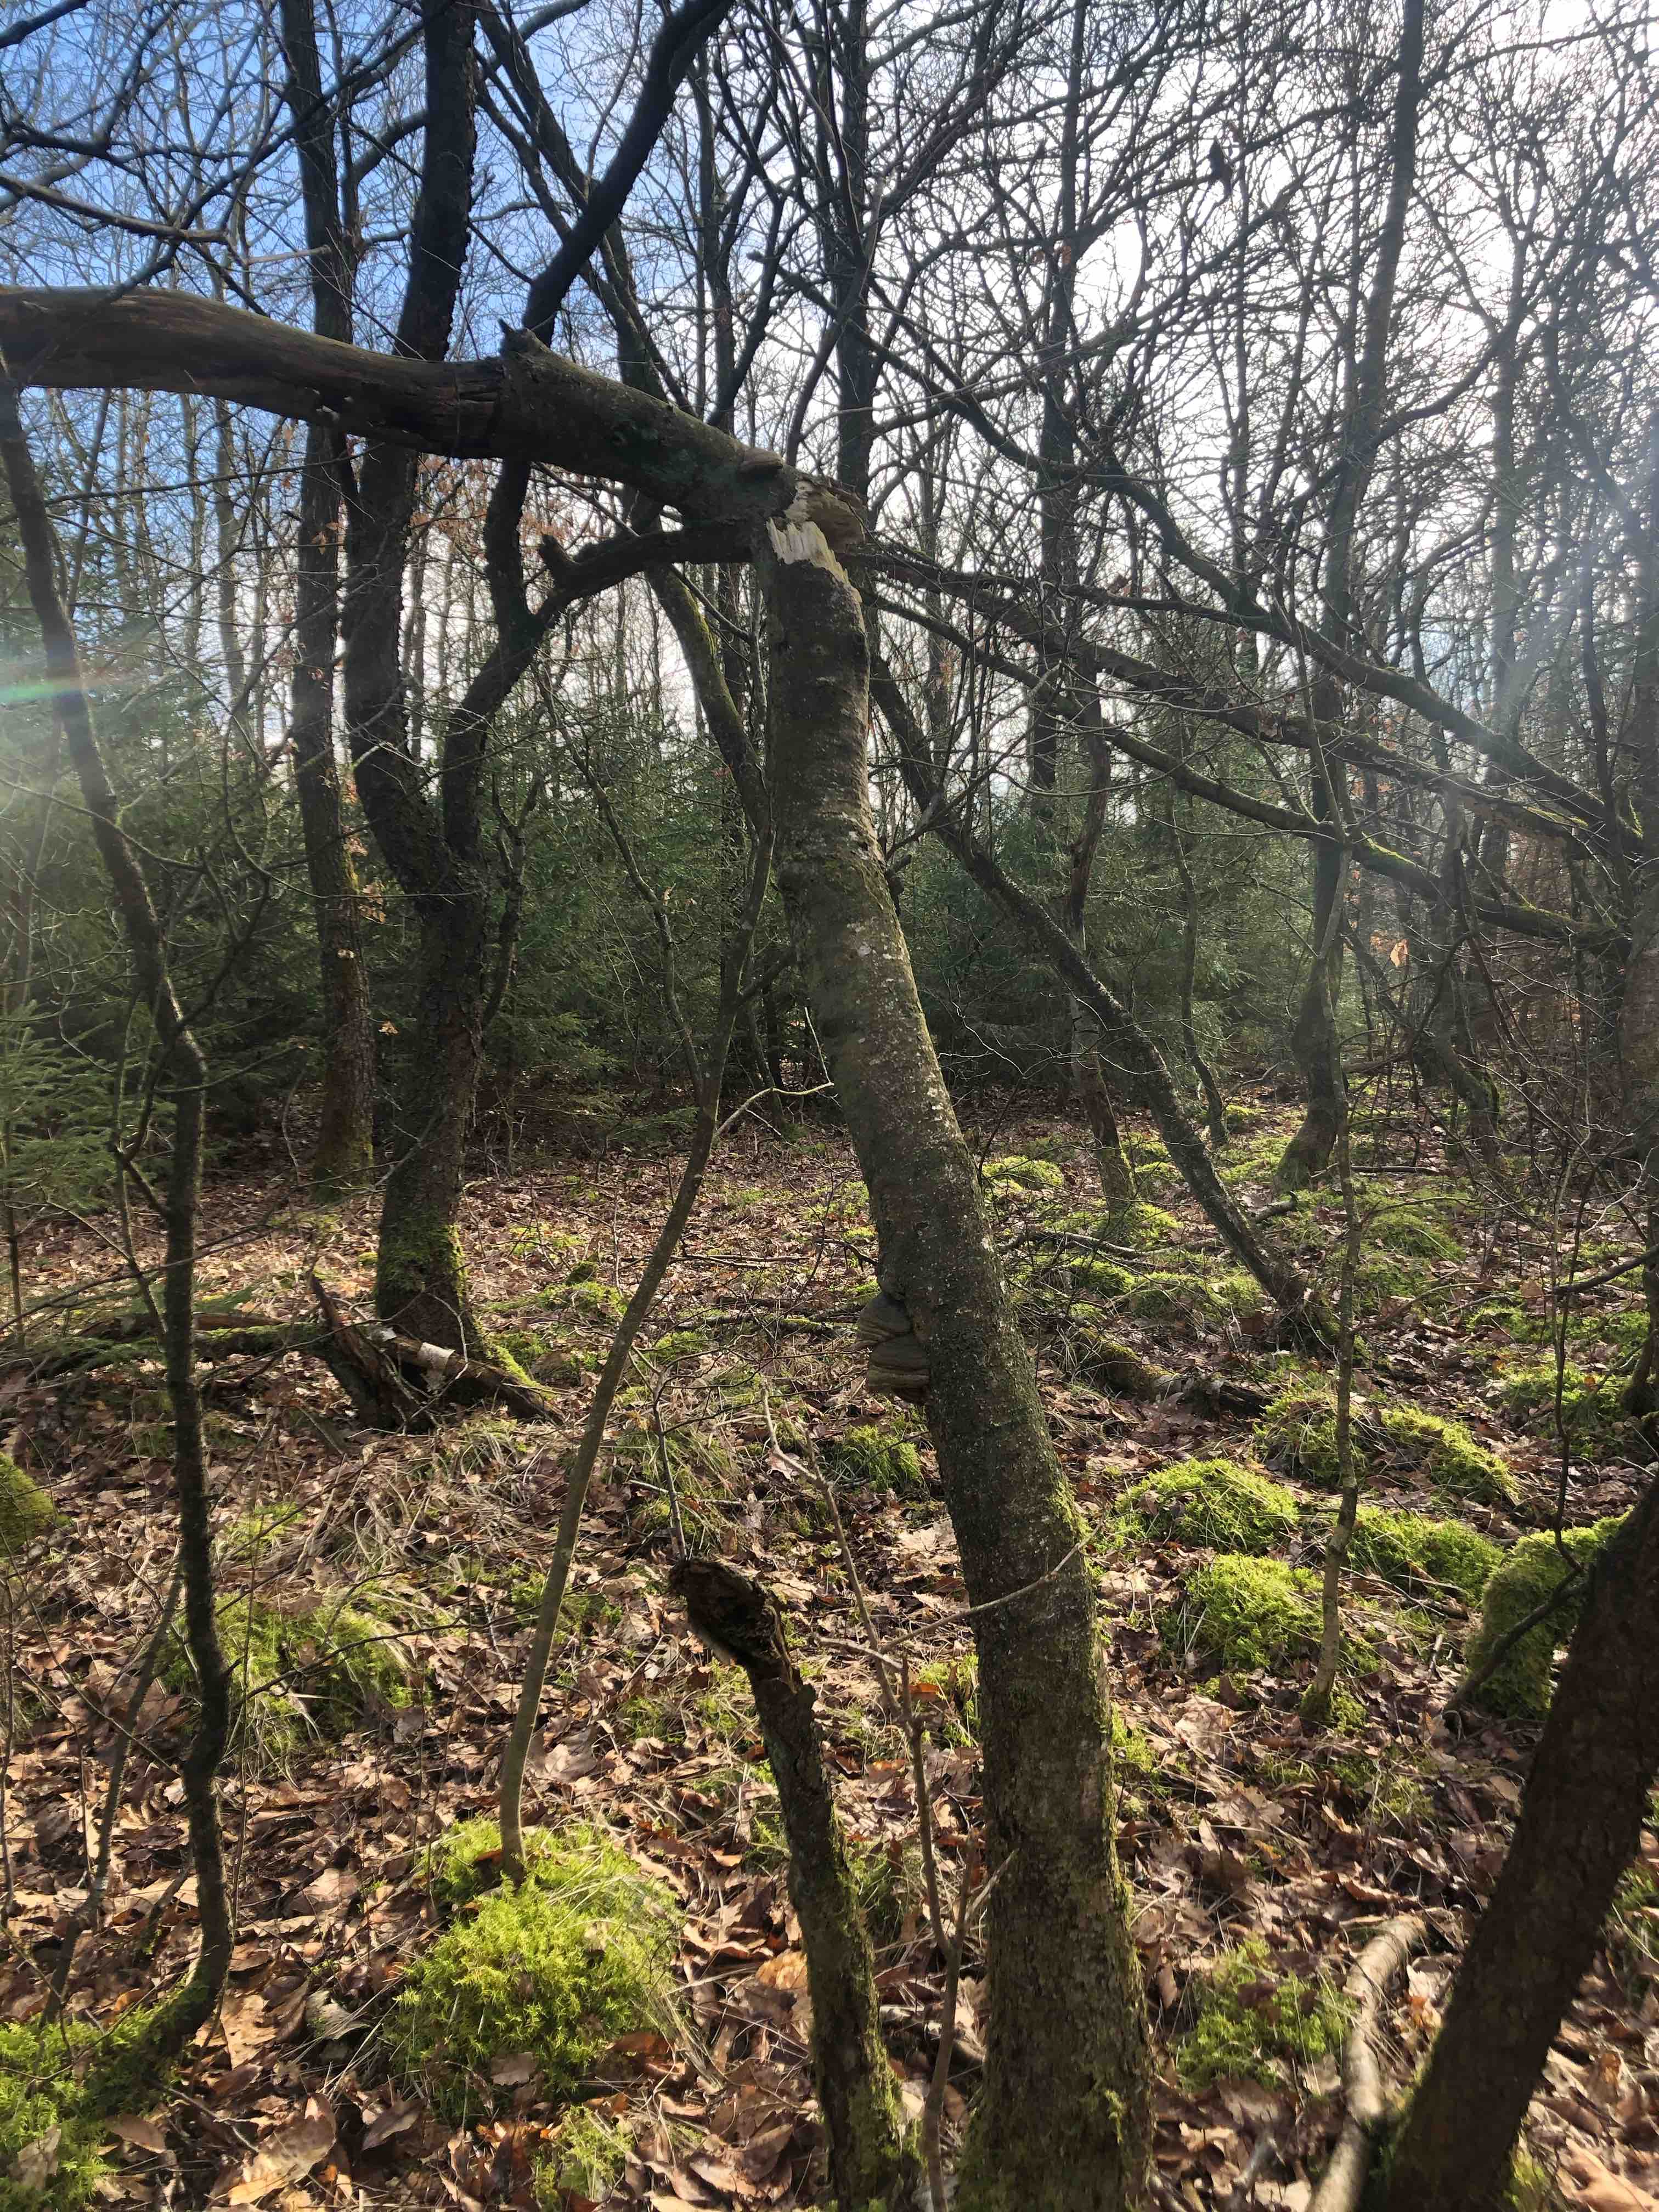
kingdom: Fungi
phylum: Basidiomycota
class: Agaricomycetes
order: Polyporales
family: Polyporaceae
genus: Fomes
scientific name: Fomes fomentarius
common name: tøndersvamp
